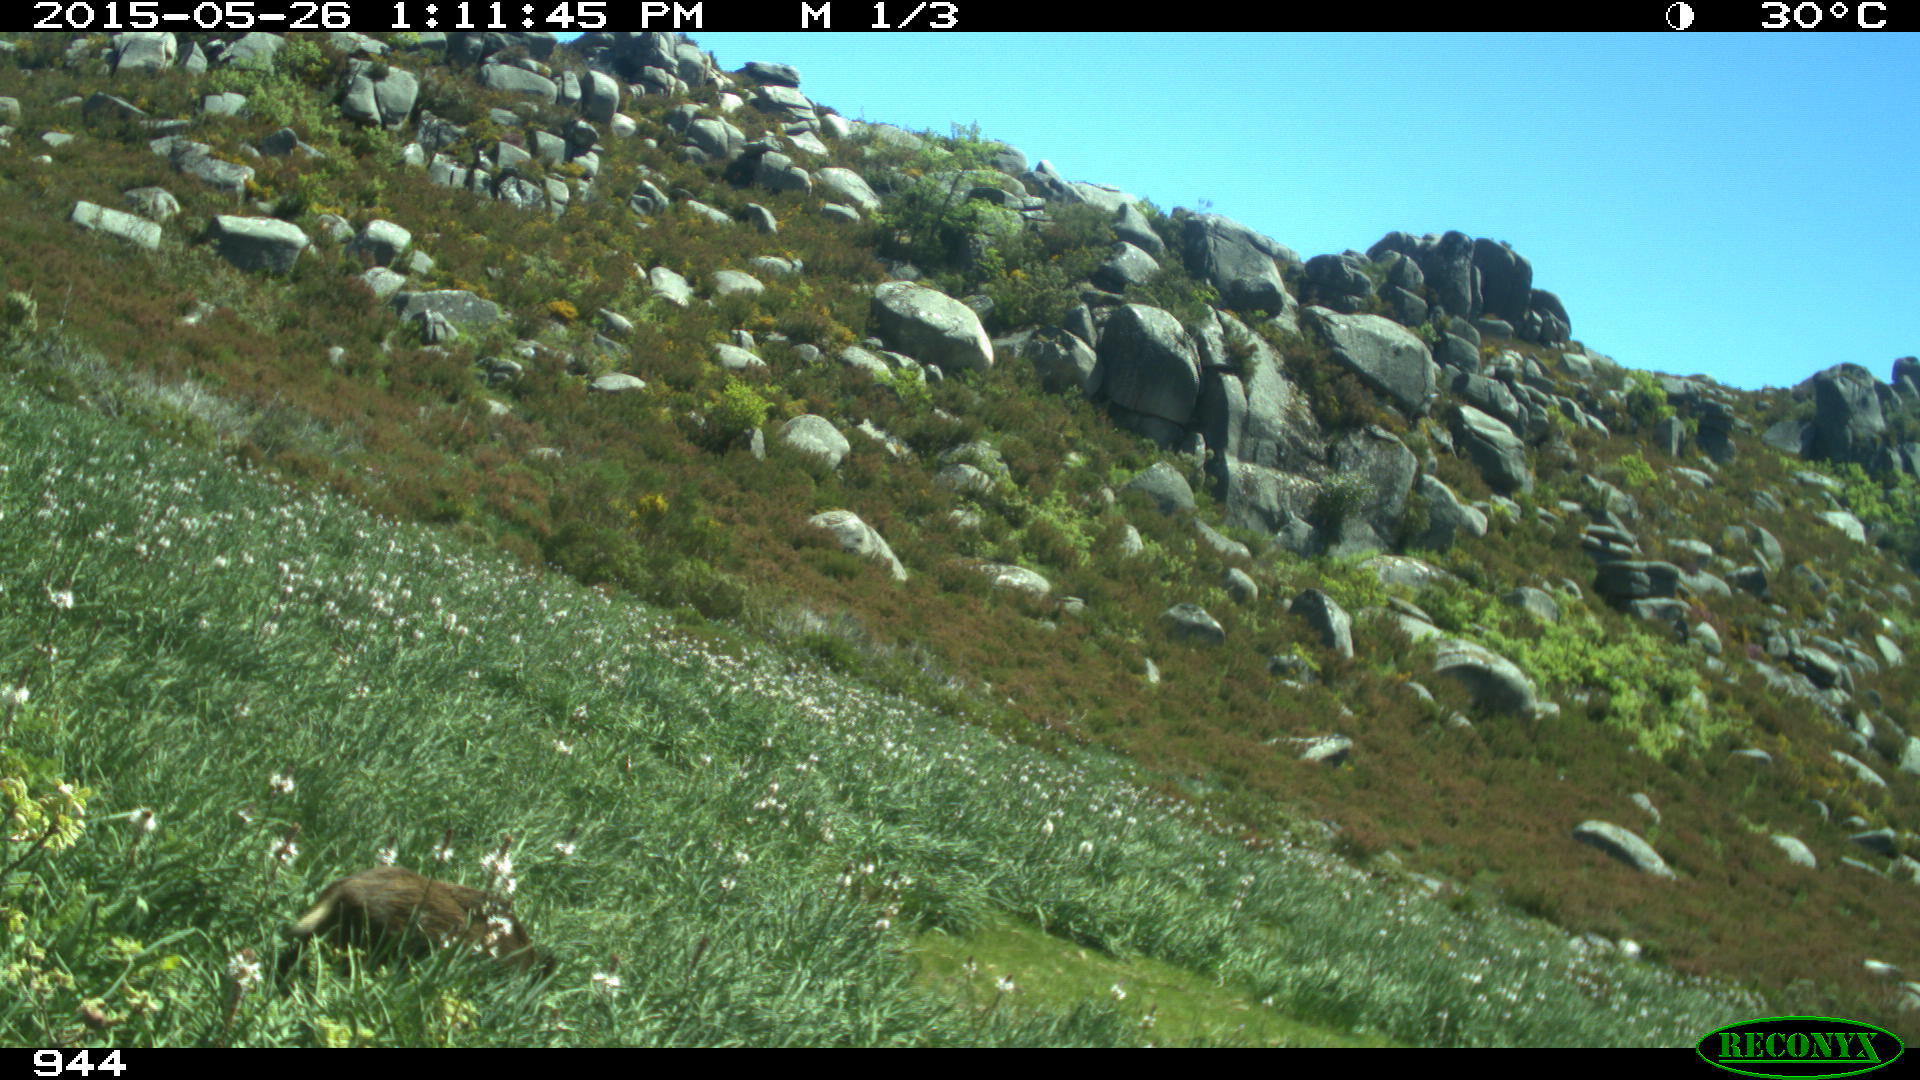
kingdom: Animalia
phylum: Chordata
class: Mammalia
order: Artiodactyla
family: Suidae
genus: Sus
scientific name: Sus scrofa
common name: Wild boar
